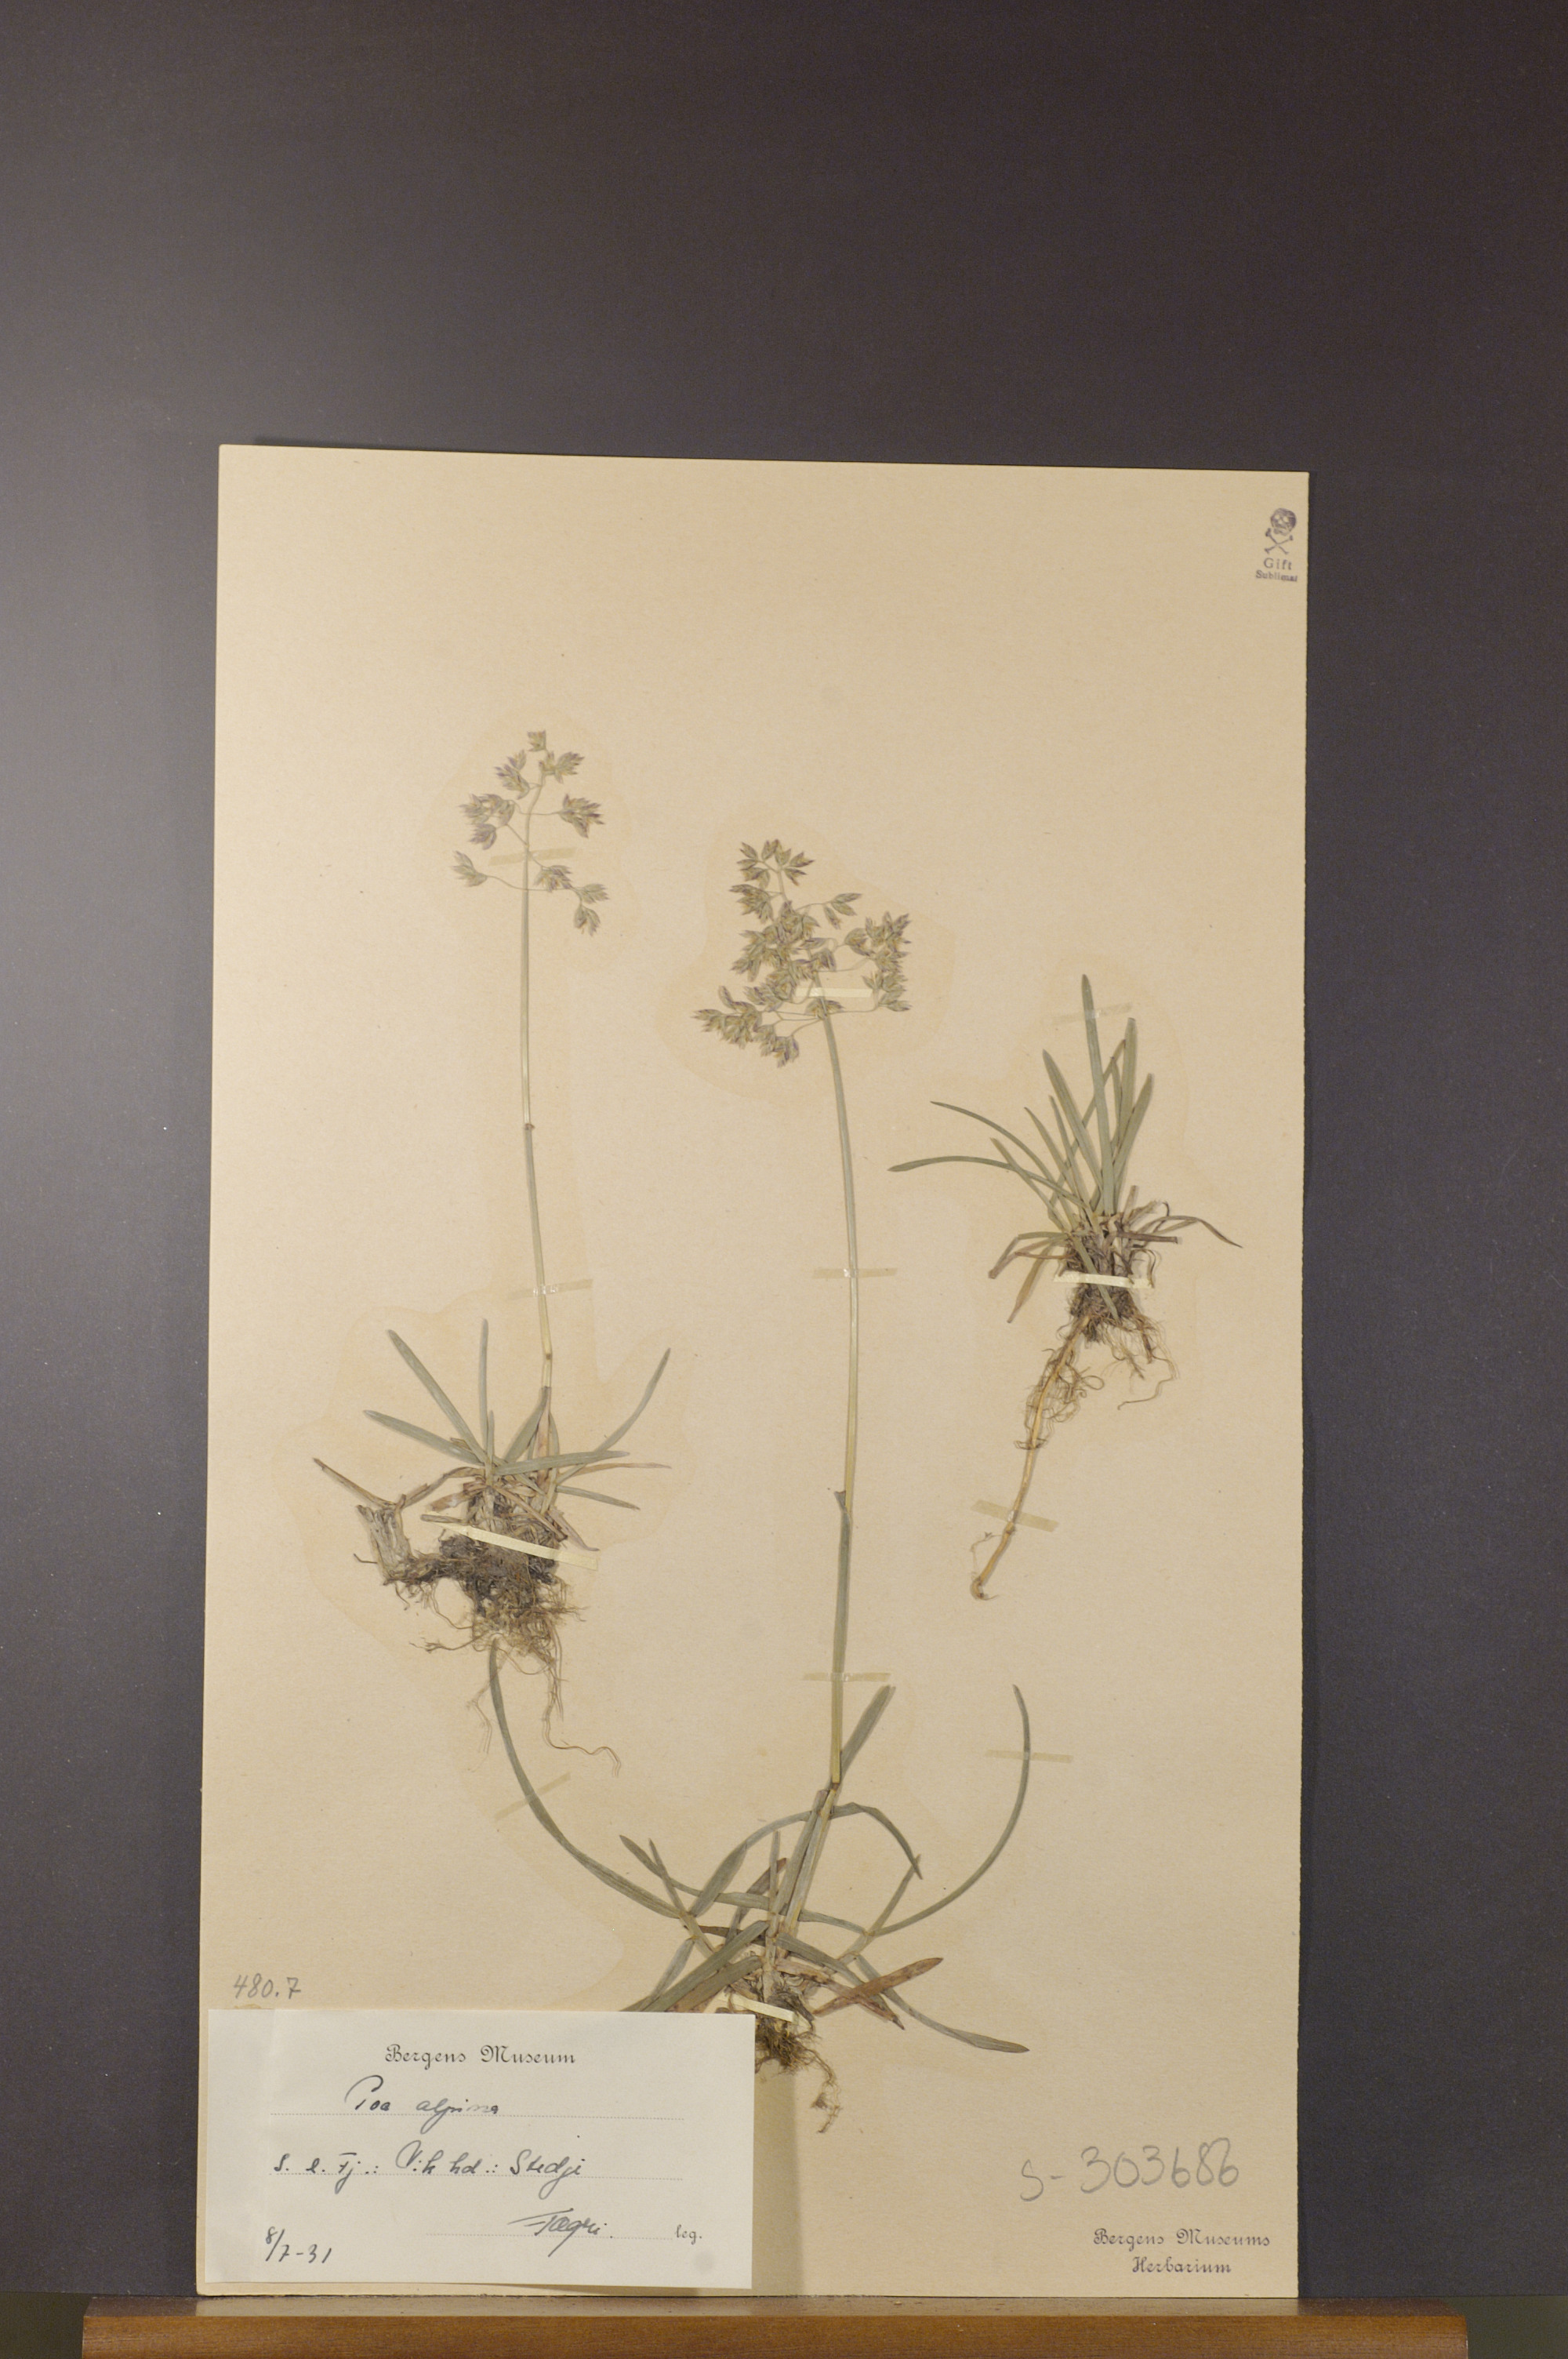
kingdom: Plantae
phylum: Tracheophyta
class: Liliopsida
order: Poales
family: Poaceae
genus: Poa
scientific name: Poa alpina
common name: Alpine bluegrass
